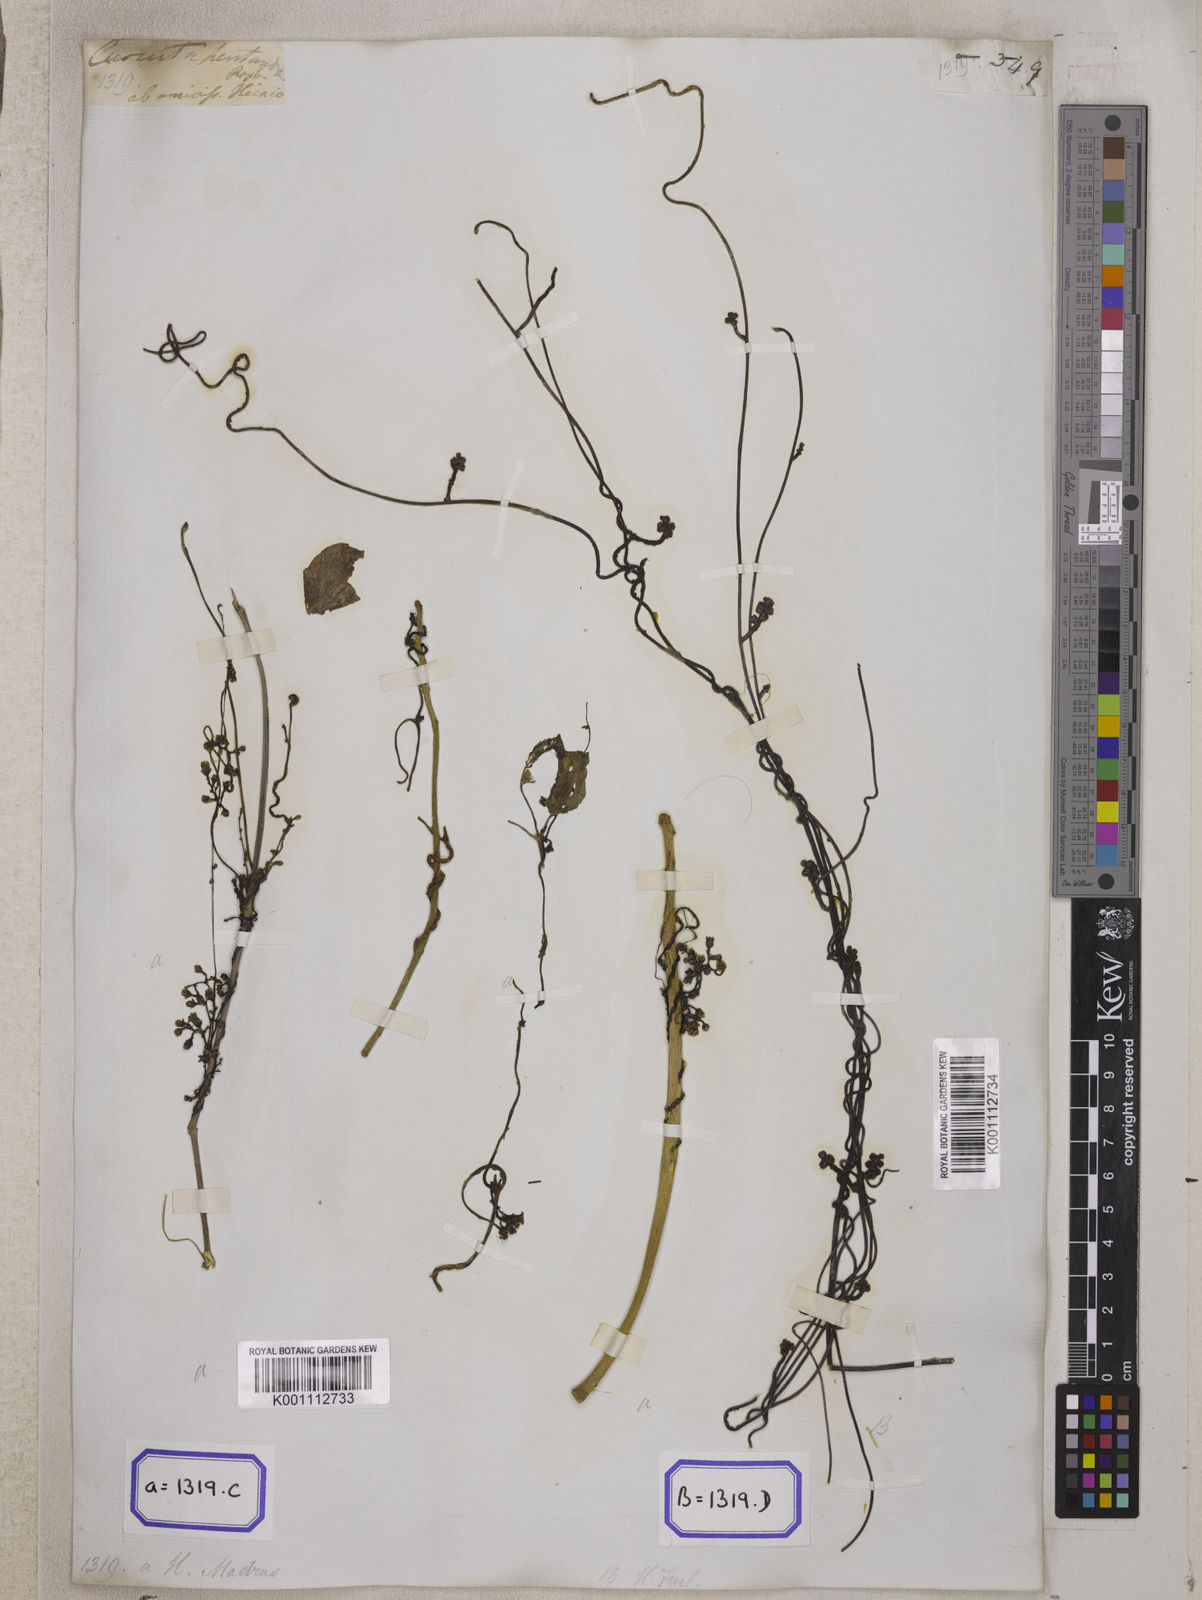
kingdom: Plantae
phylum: Tracheophyta
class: Magnoliopsida
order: Solanales
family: Convolvulaceae
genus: Cuscuta
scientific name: Cuscuta reflexa
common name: Giant dodder
